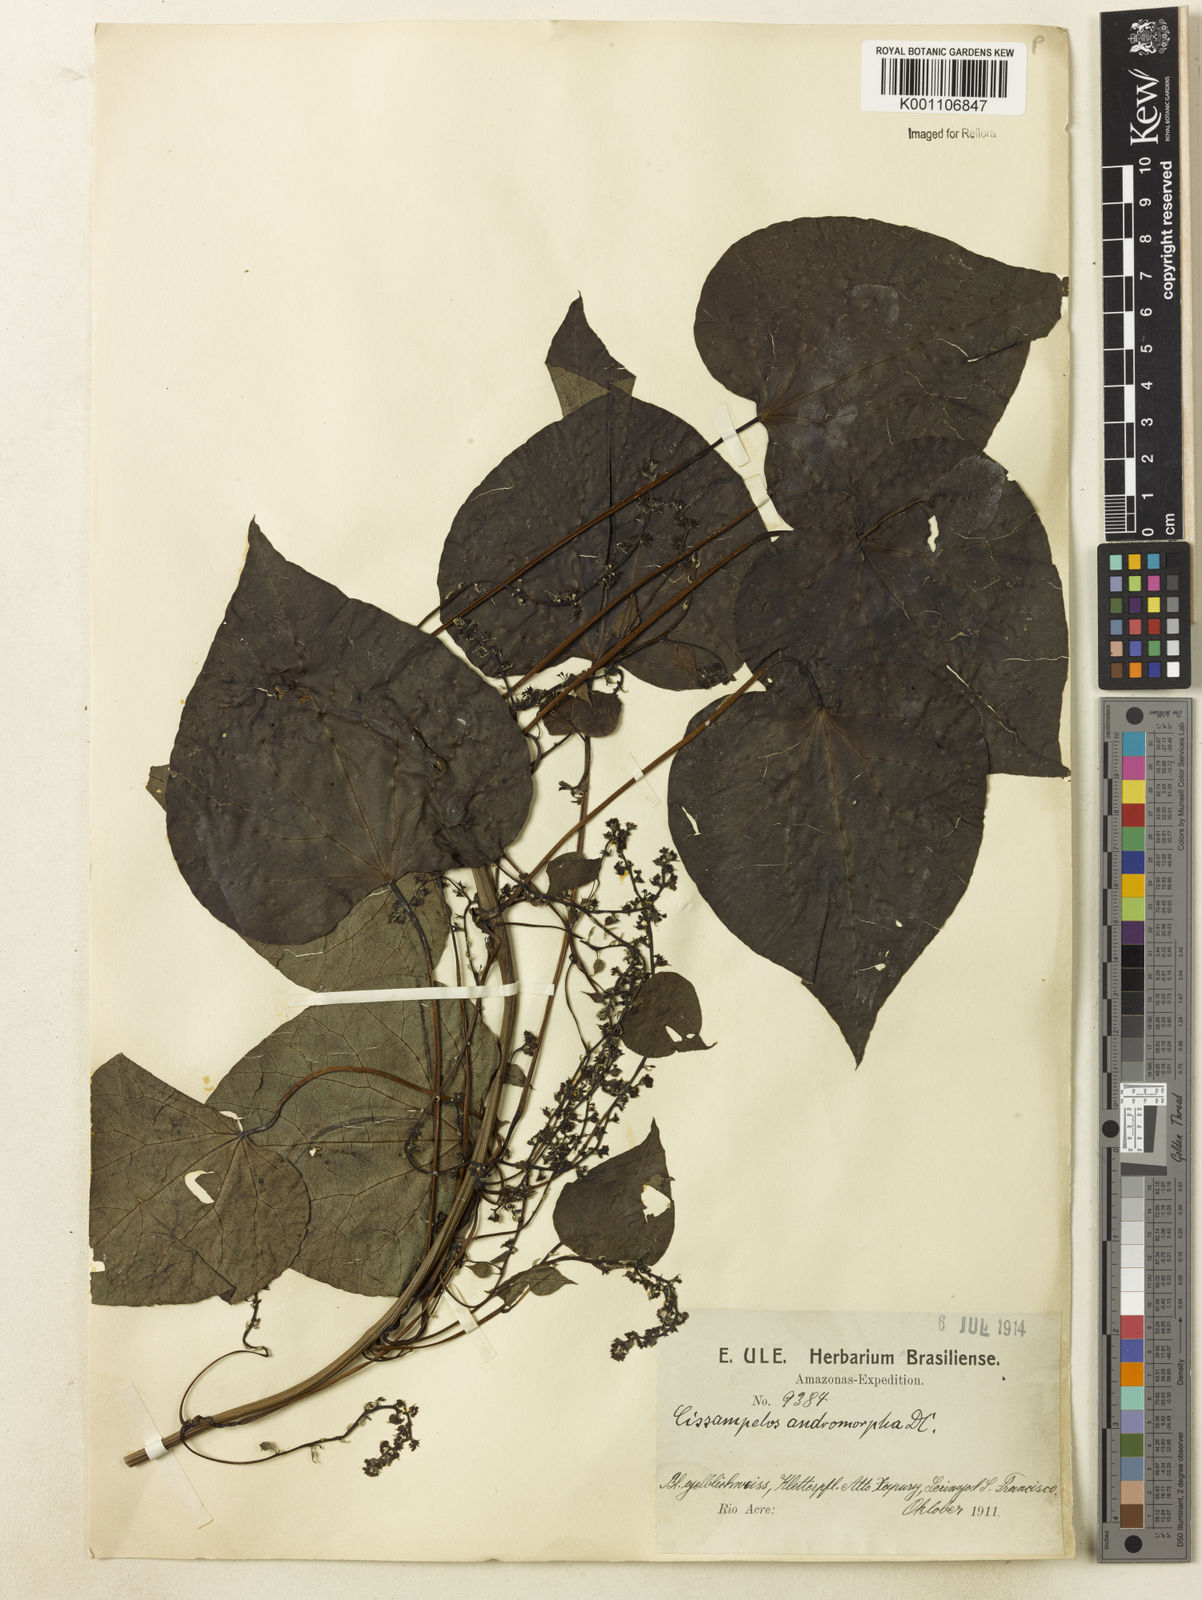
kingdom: Plantae
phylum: Tracheophyta
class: Magnoliopsida
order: Ranunculales
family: Menispermaceae
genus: Cissampelos
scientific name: Cissampelos andromorpha
